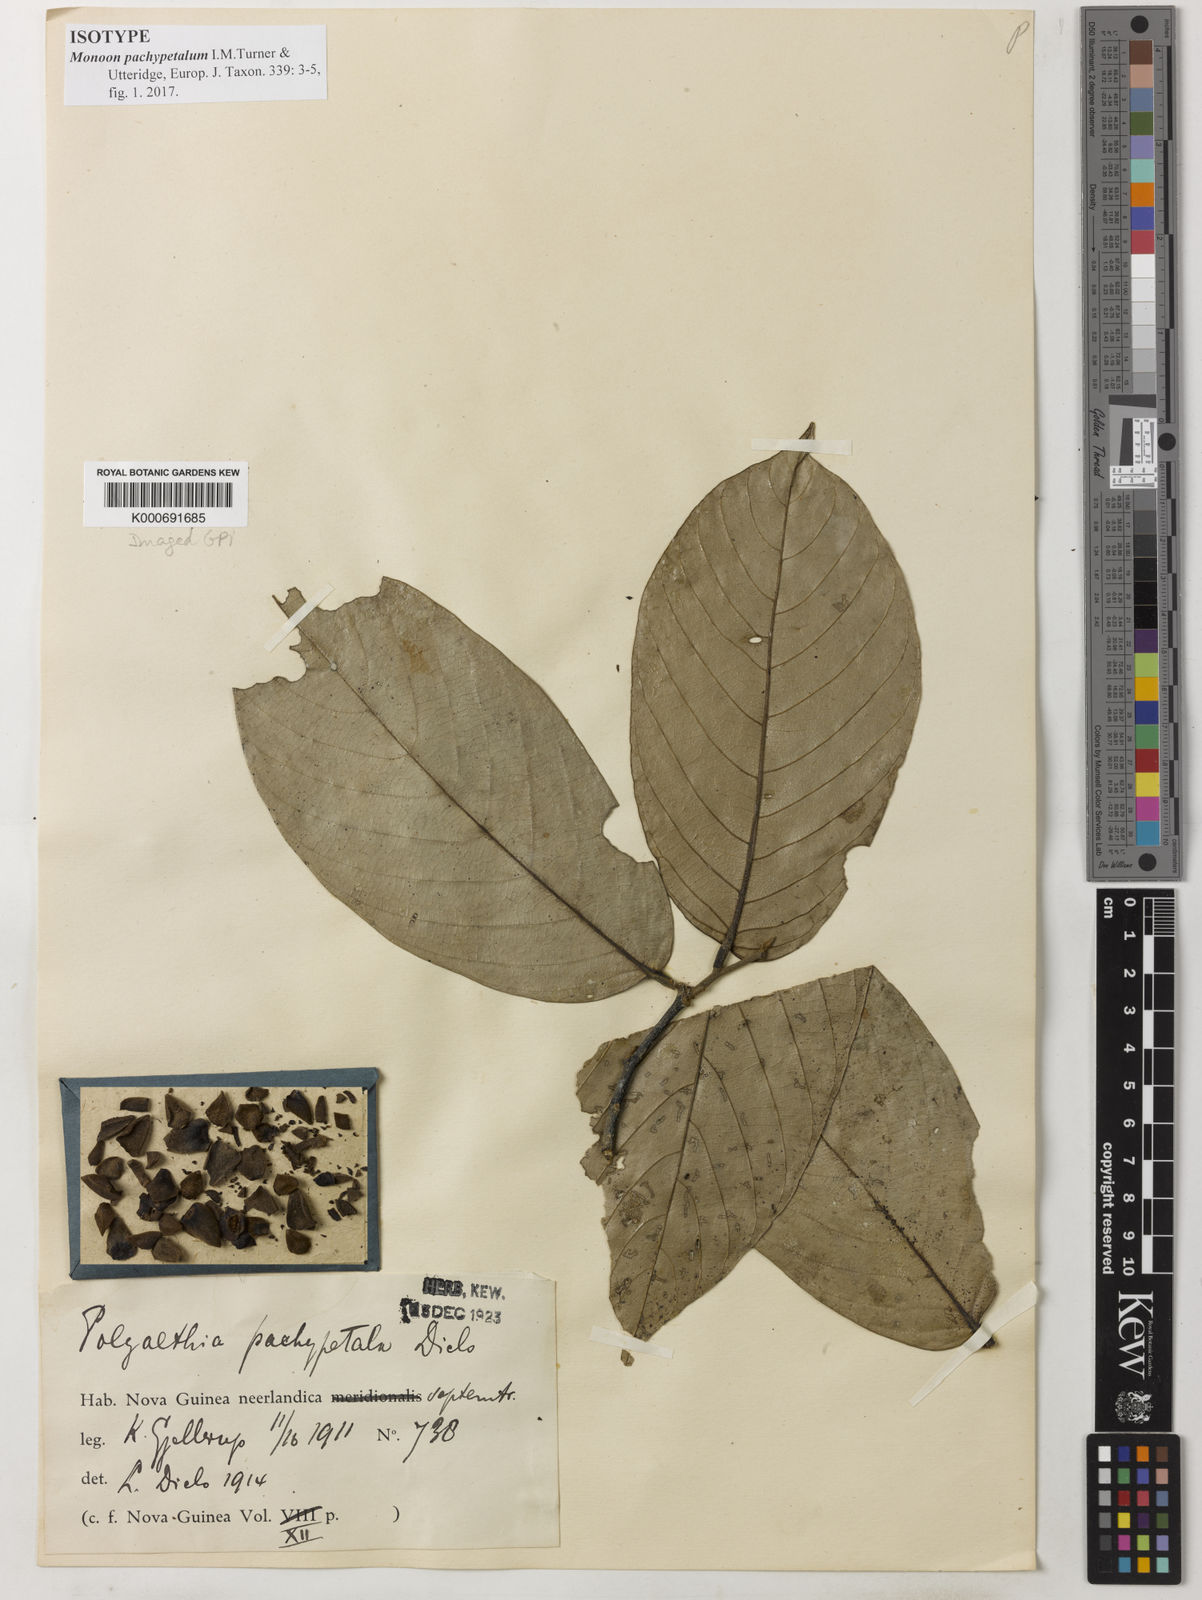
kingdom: Plantae
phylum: Tracheophyta
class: Magnoliopsida
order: Magnoliales
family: Annonaceae
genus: Monoon
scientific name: Monoon pachypetalum
